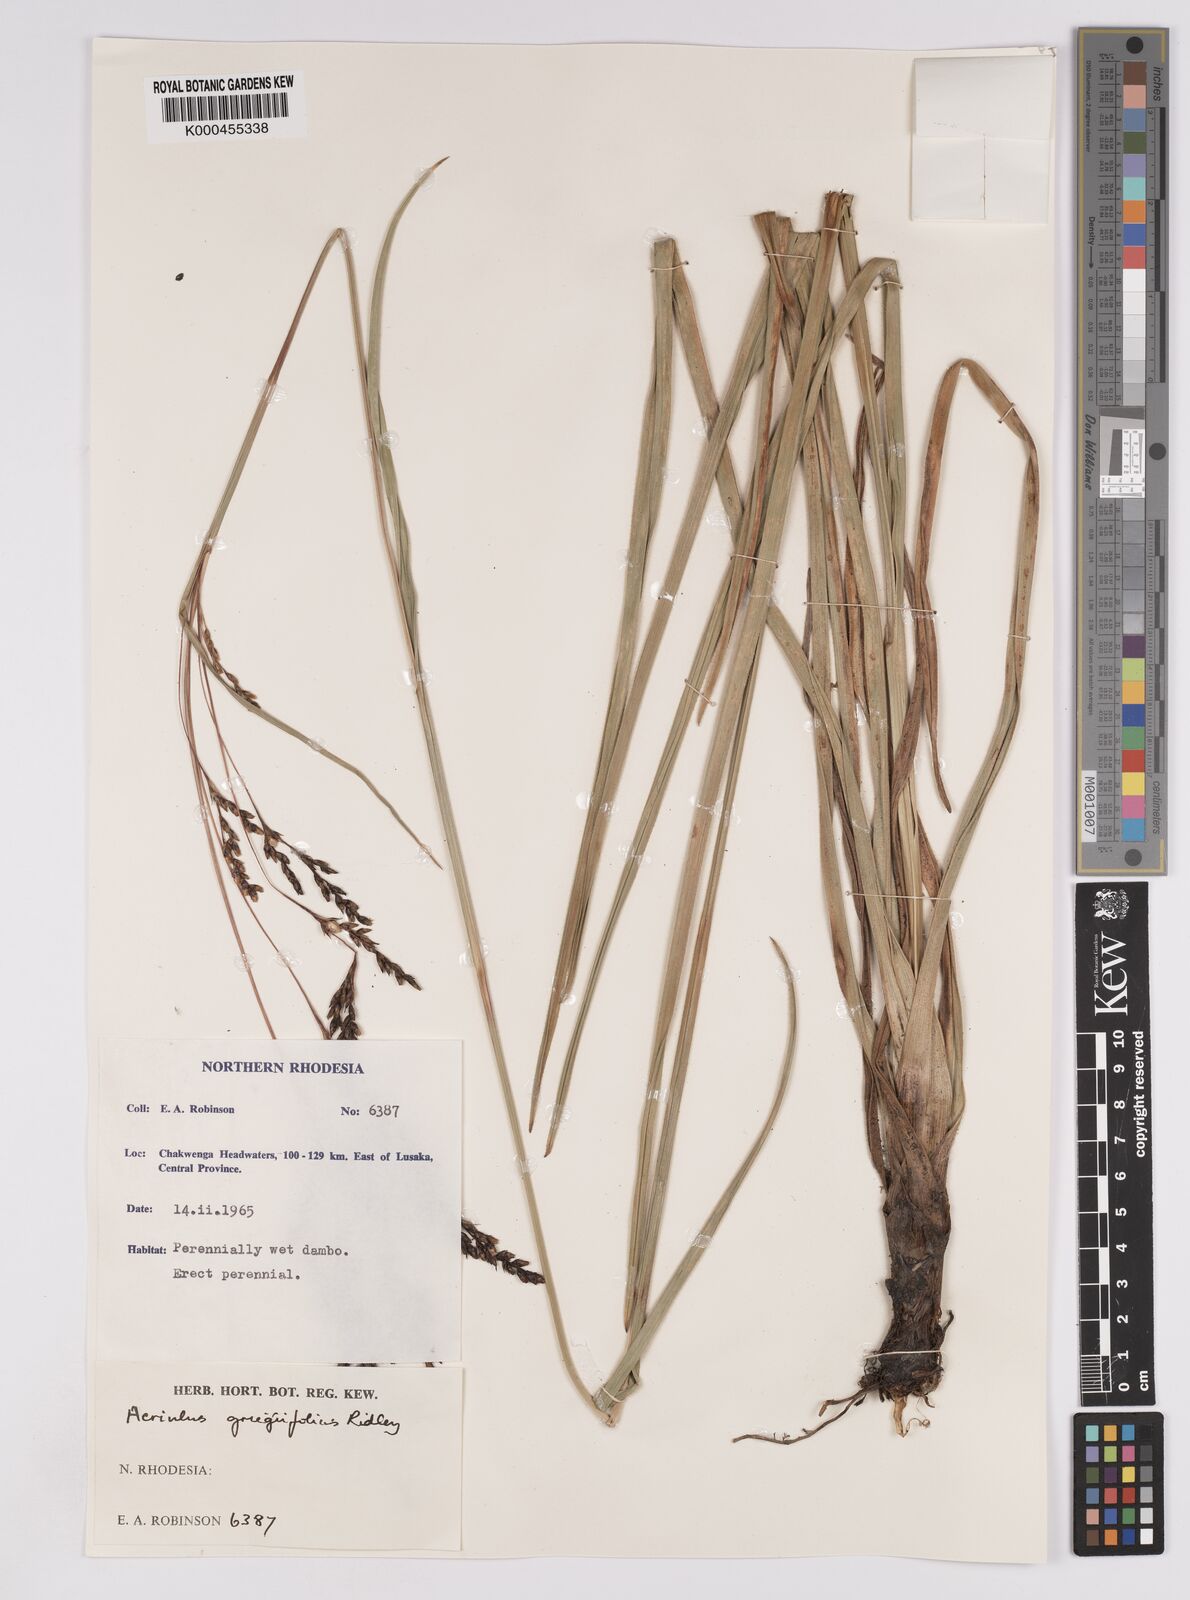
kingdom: Plantae
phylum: Tracheophyta
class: Liliopsida
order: Poales
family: Cyperaceae
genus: Scleria
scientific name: Scleria greigiifolia
